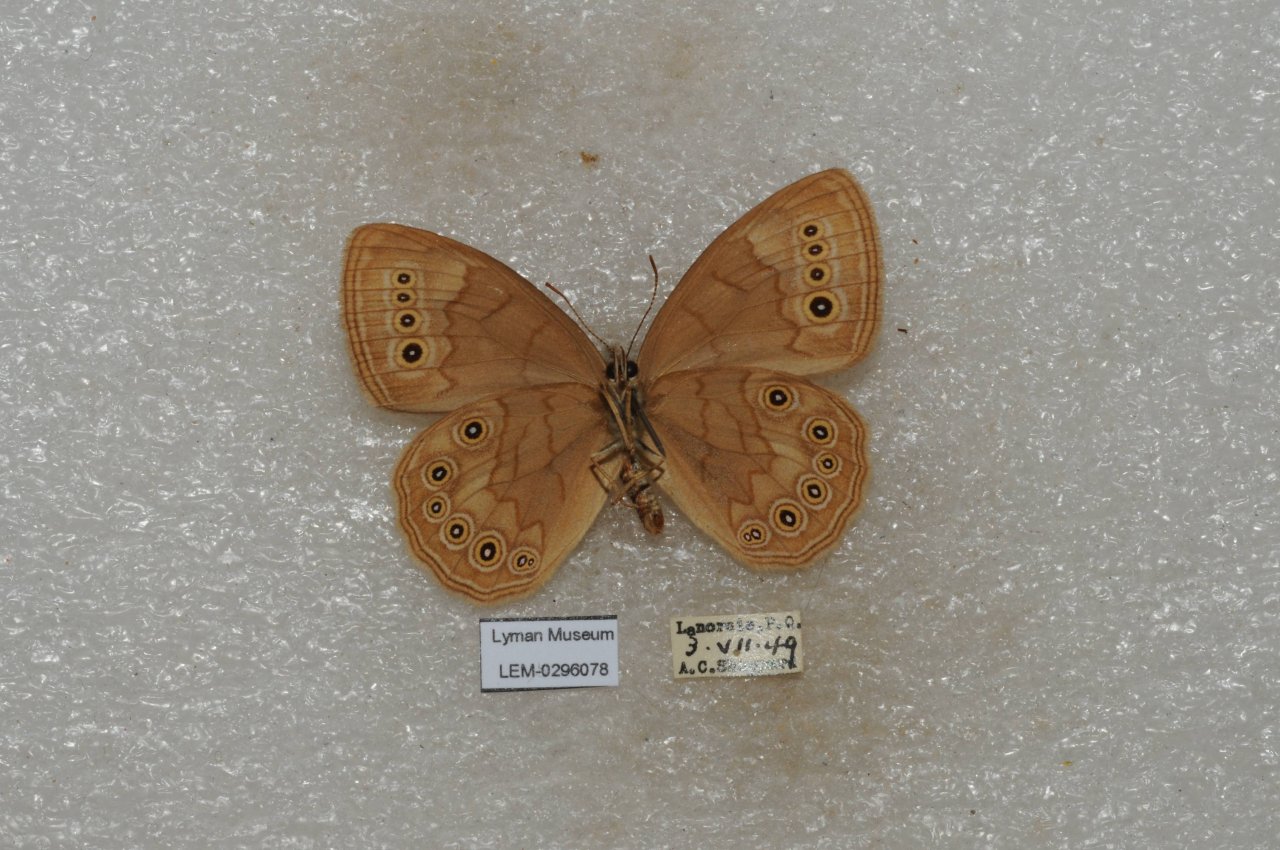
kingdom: Animalia
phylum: Arthropoda
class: Insecta
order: Lepidoptera
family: Nymphalidae
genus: Lethe
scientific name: Lethe eurydice
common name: Eyed Brown
